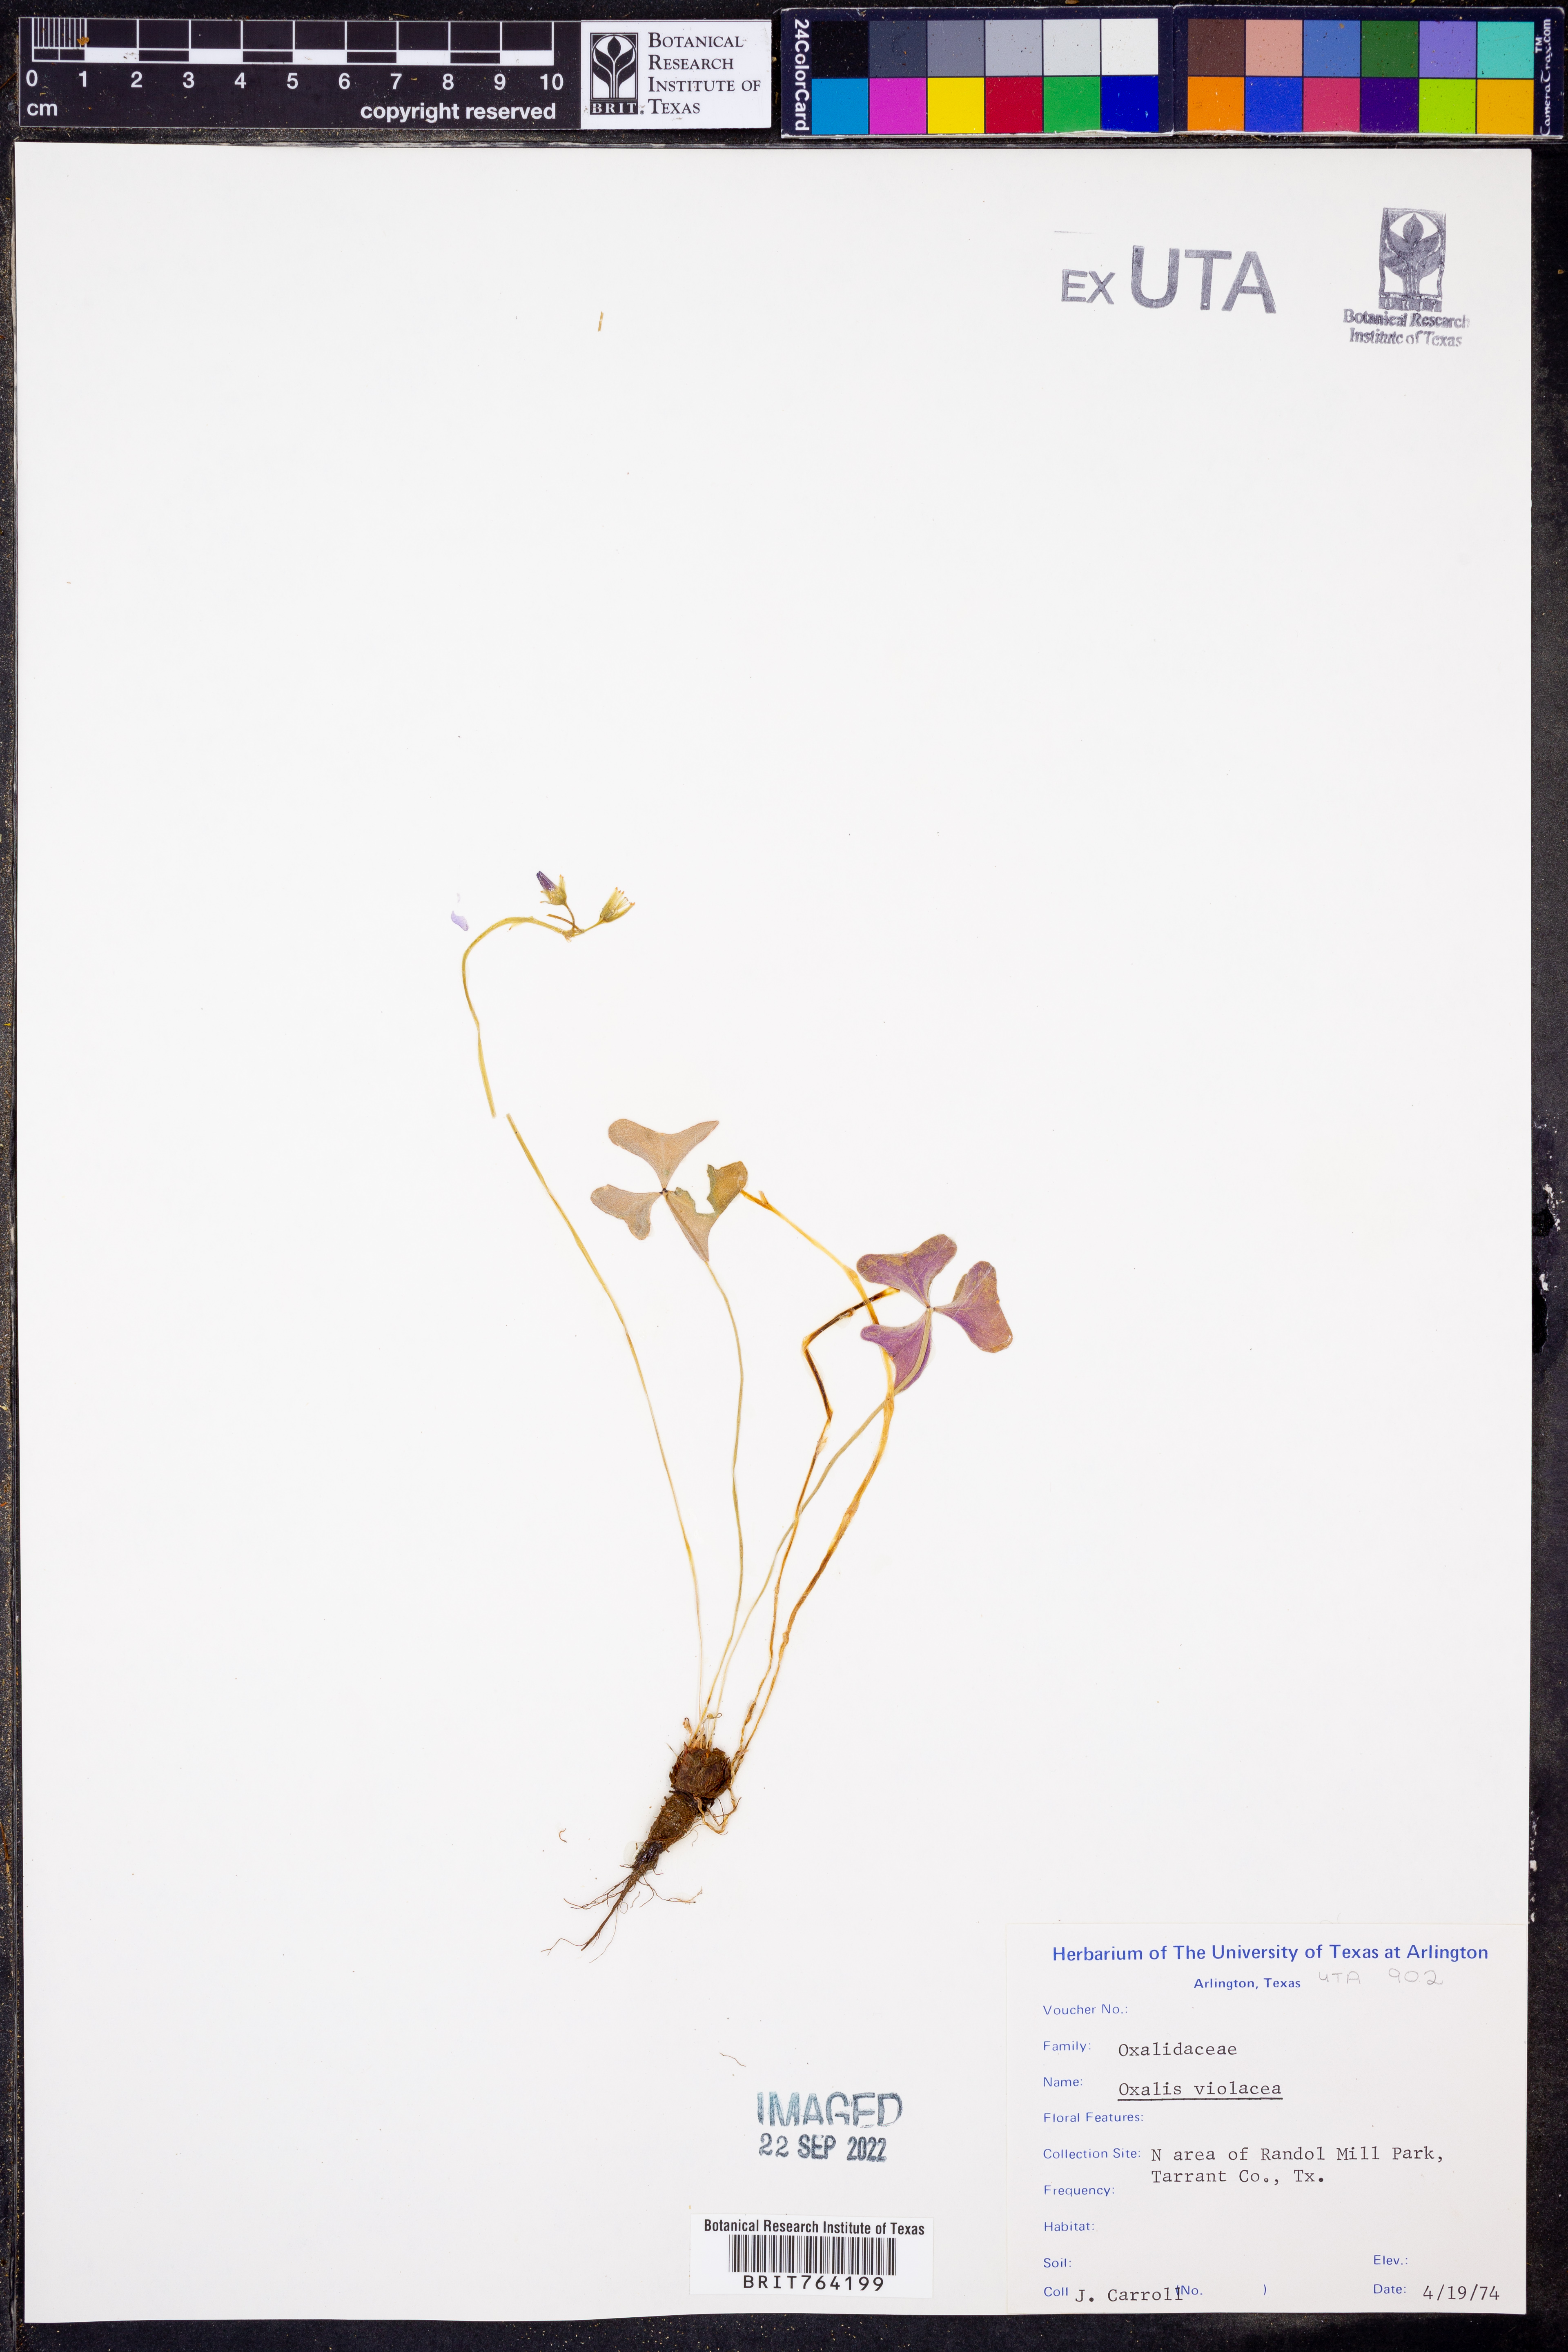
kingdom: Plantae
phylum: Tracheophyta
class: Magnoliopsida
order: Oxalidales
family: Oxalidaceae
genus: Oxalis
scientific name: Oxalis violacea
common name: Violet wood-sorrel
